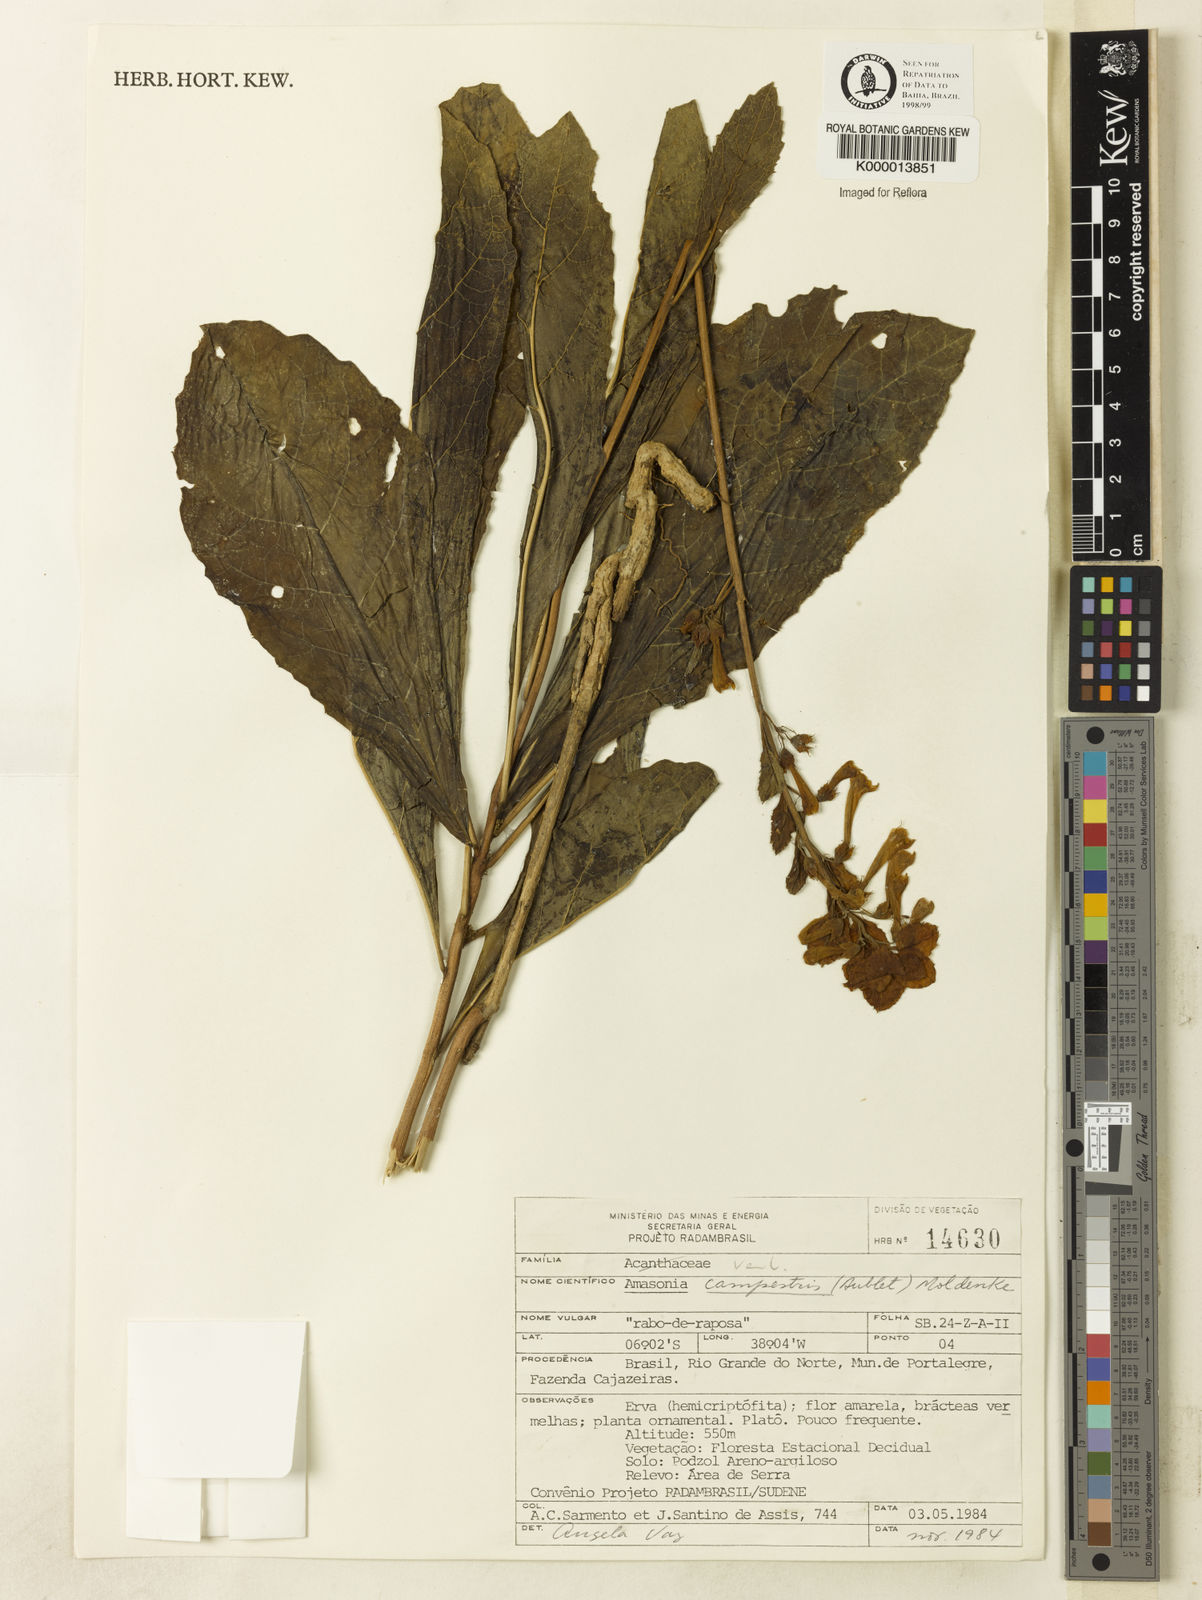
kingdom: Plantae
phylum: Tracheophyta
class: Magnoliopsida
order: Lamiales
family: Lamiaceae
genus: Amasonia
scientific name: Amasonia campestris
